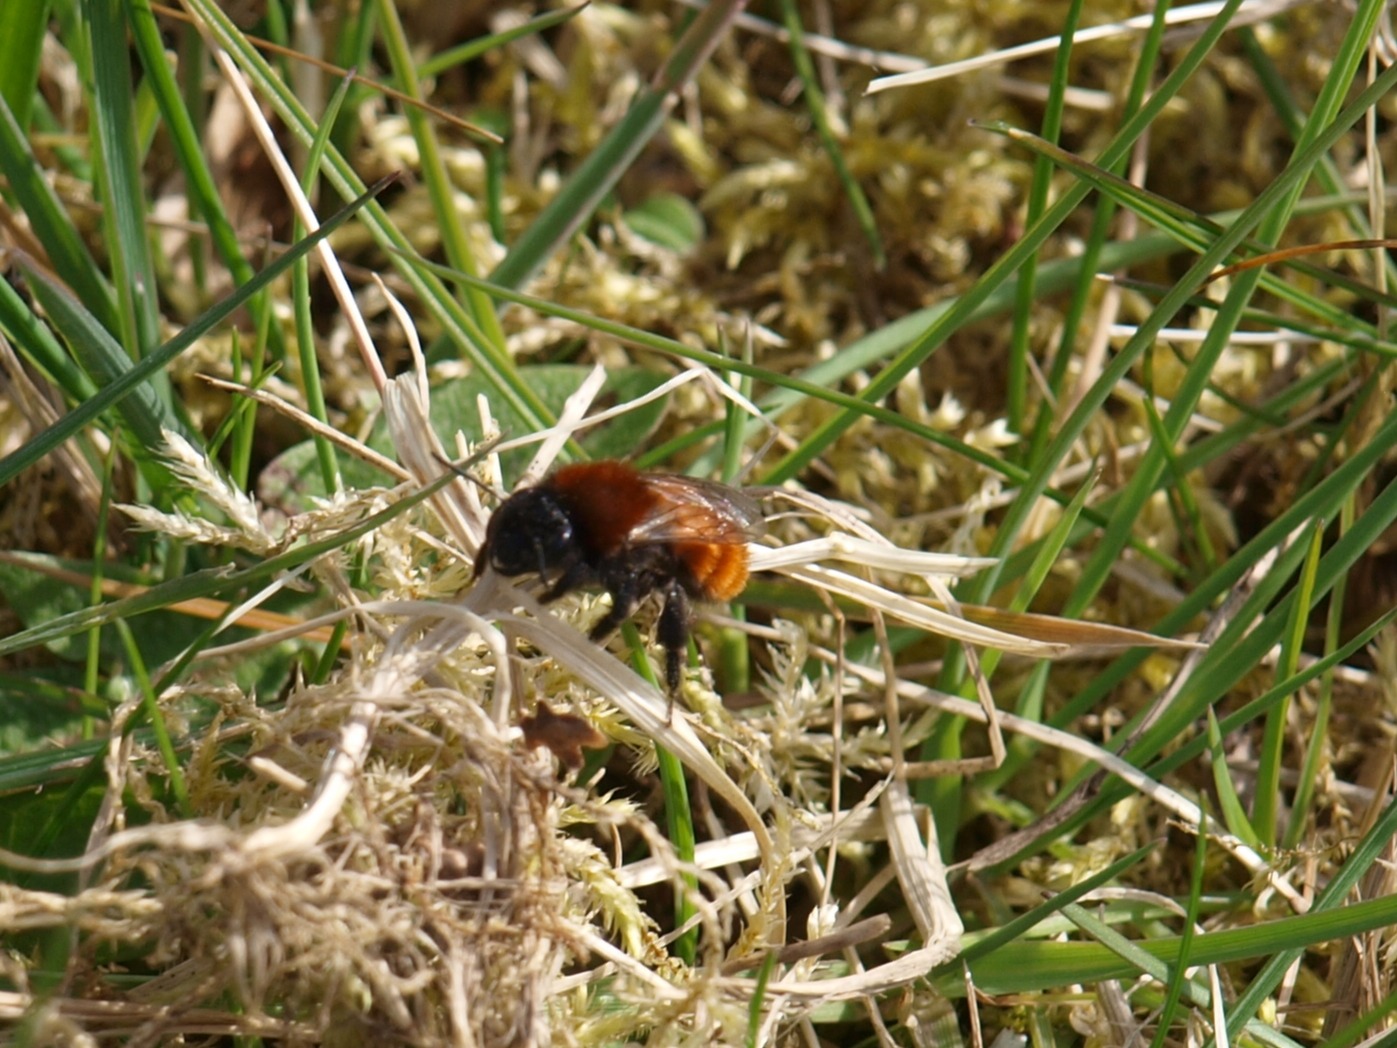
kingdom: Animalia
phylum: Arthropoda
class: Insecta
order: Hymenoptera
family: Andrenidae
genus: Andrena
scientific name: Andrena fulva
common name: Rødpelset jordbi
